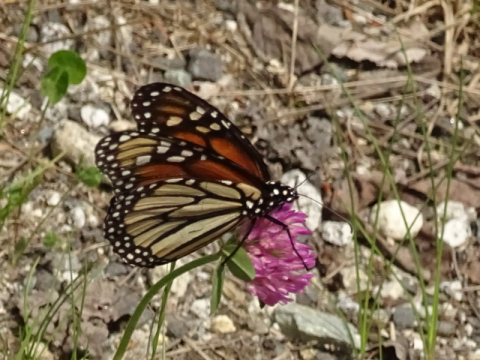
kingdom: Animalia
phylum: Arthropoda
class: Insecta
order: Lepidoptera
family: Nymphalidae
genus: Danaus
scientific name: Danaus plexippus
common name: Monarch
